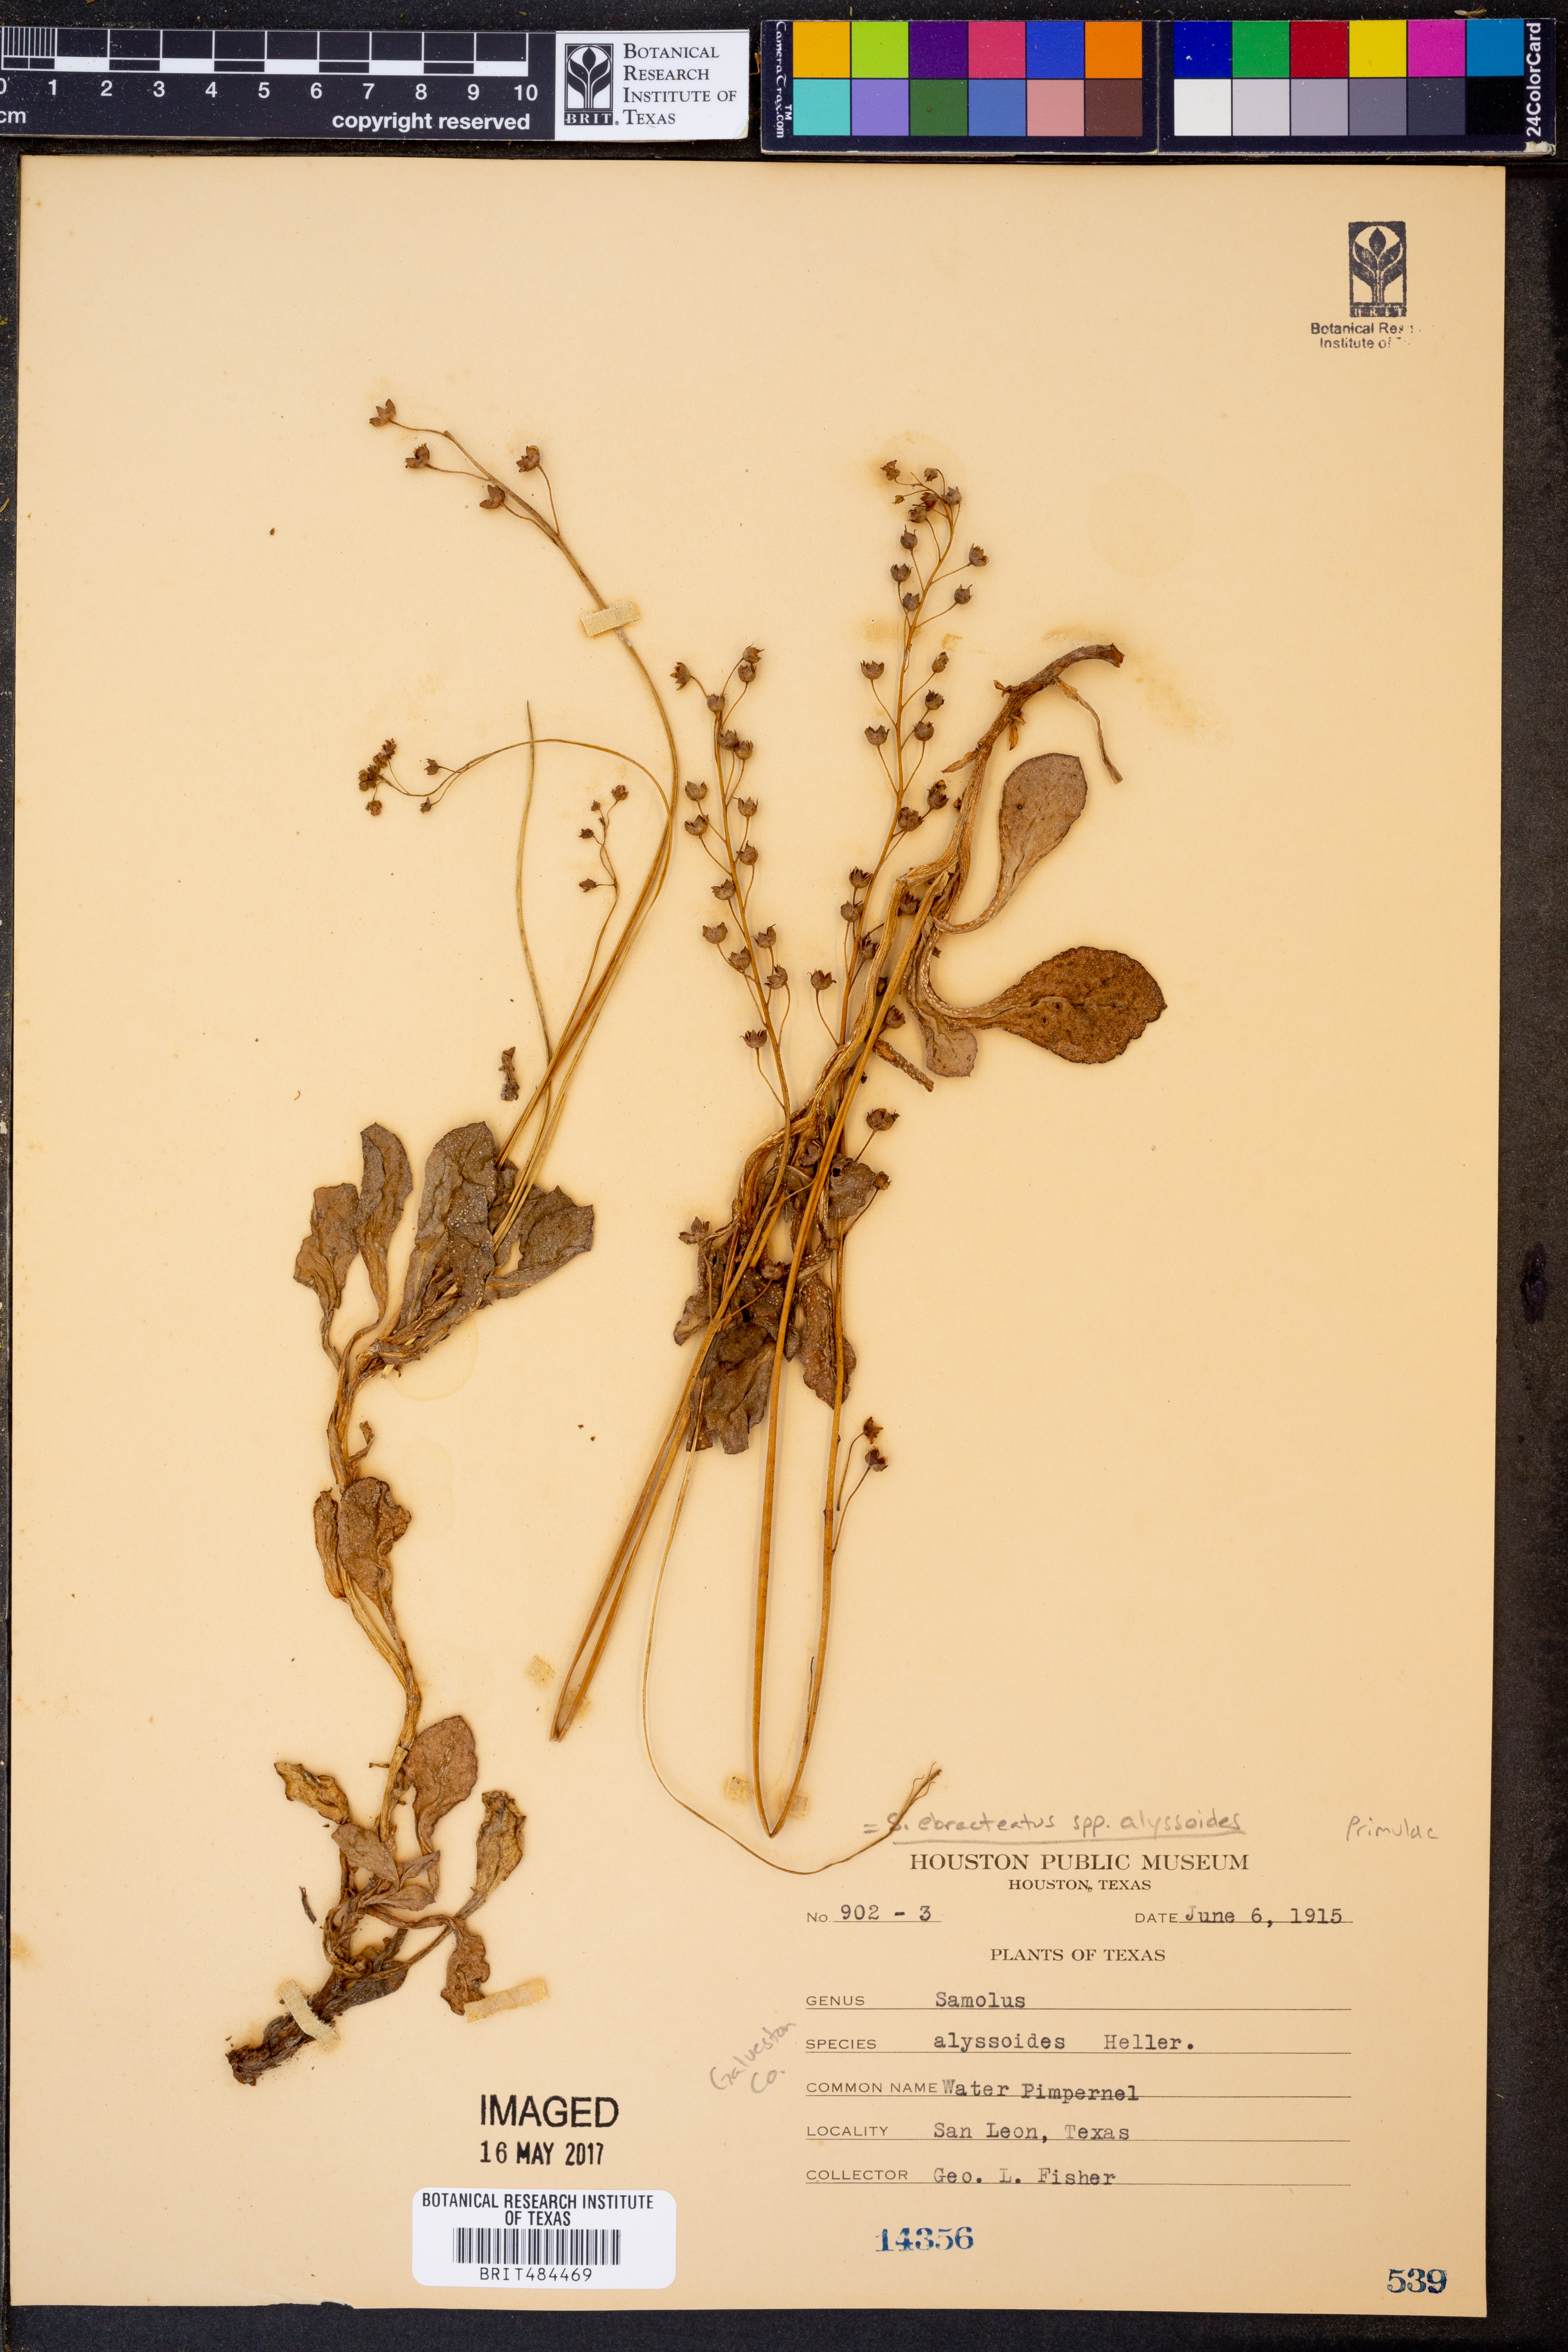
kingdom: Plantae
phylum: Tracheophyta
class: Magnoliopsida
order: Ericales
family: Primulaceae
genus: Samolus
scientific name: Samolus ebracteatus
